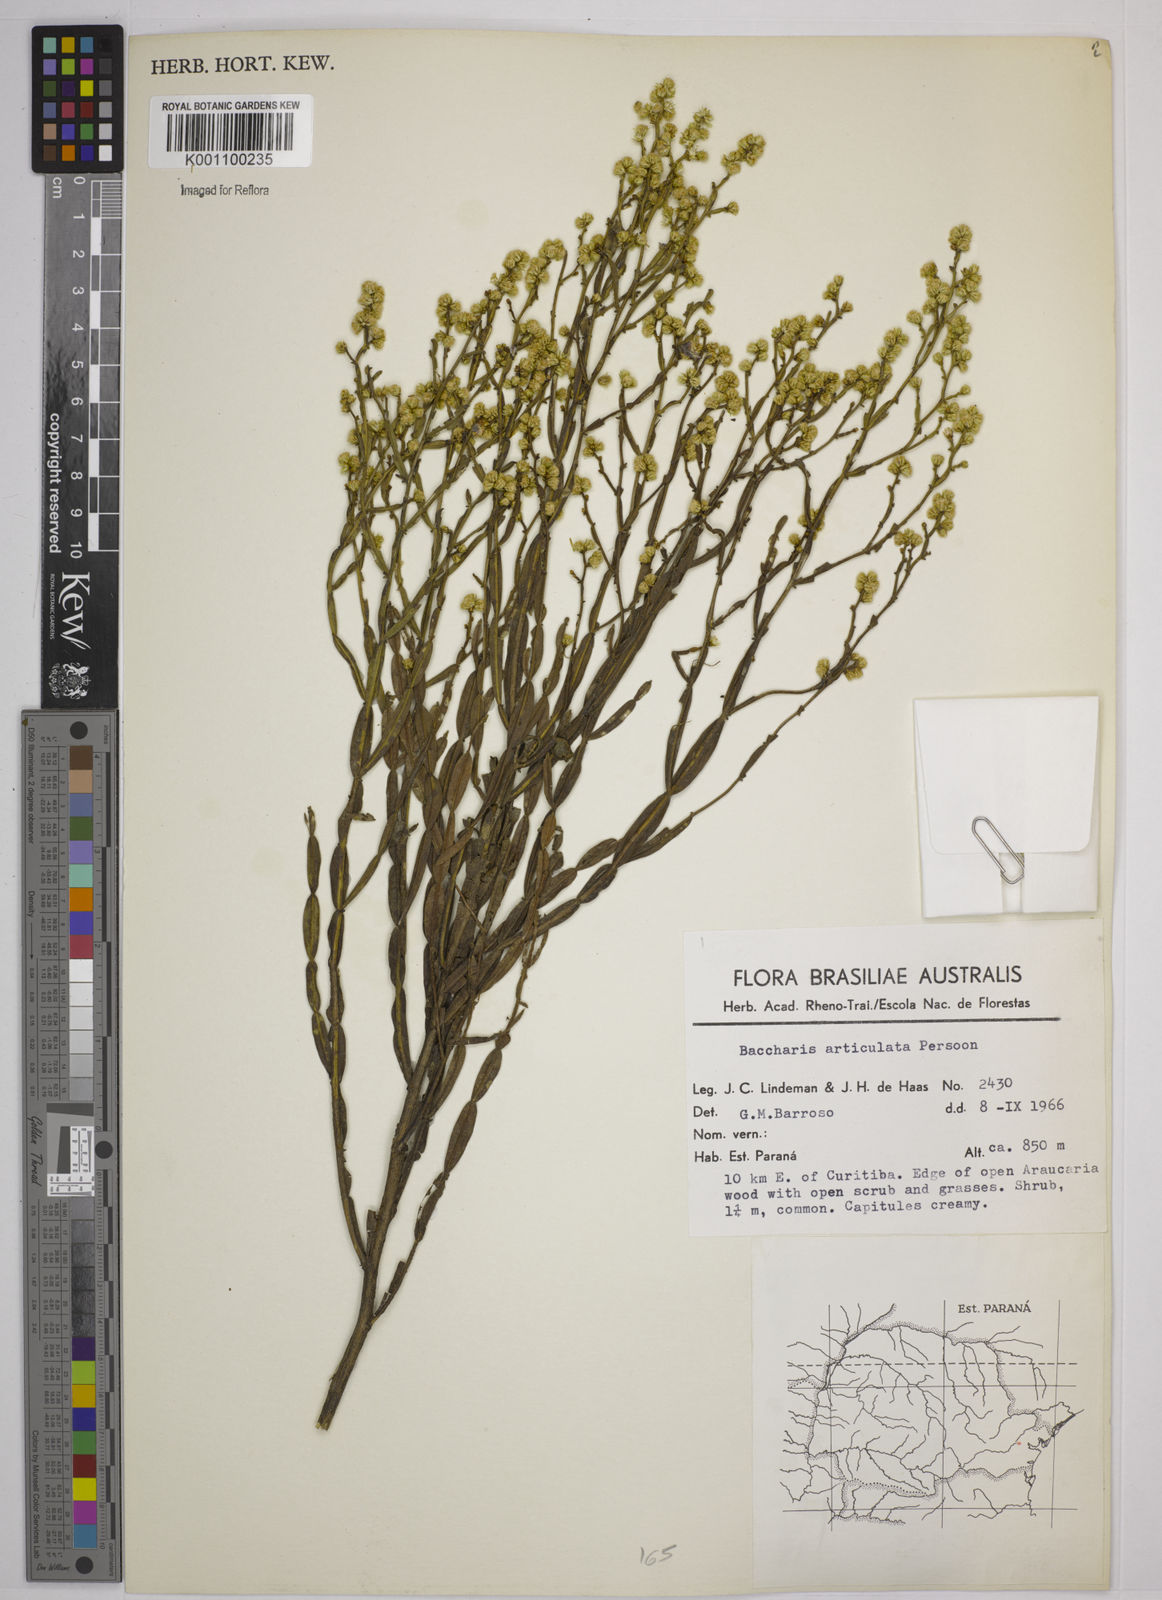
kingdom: Plantae
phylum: Tracheophyta
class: Magnoliopsida
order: Asterales
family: Asteraceae
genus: Baccharis
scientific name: Baccharis
